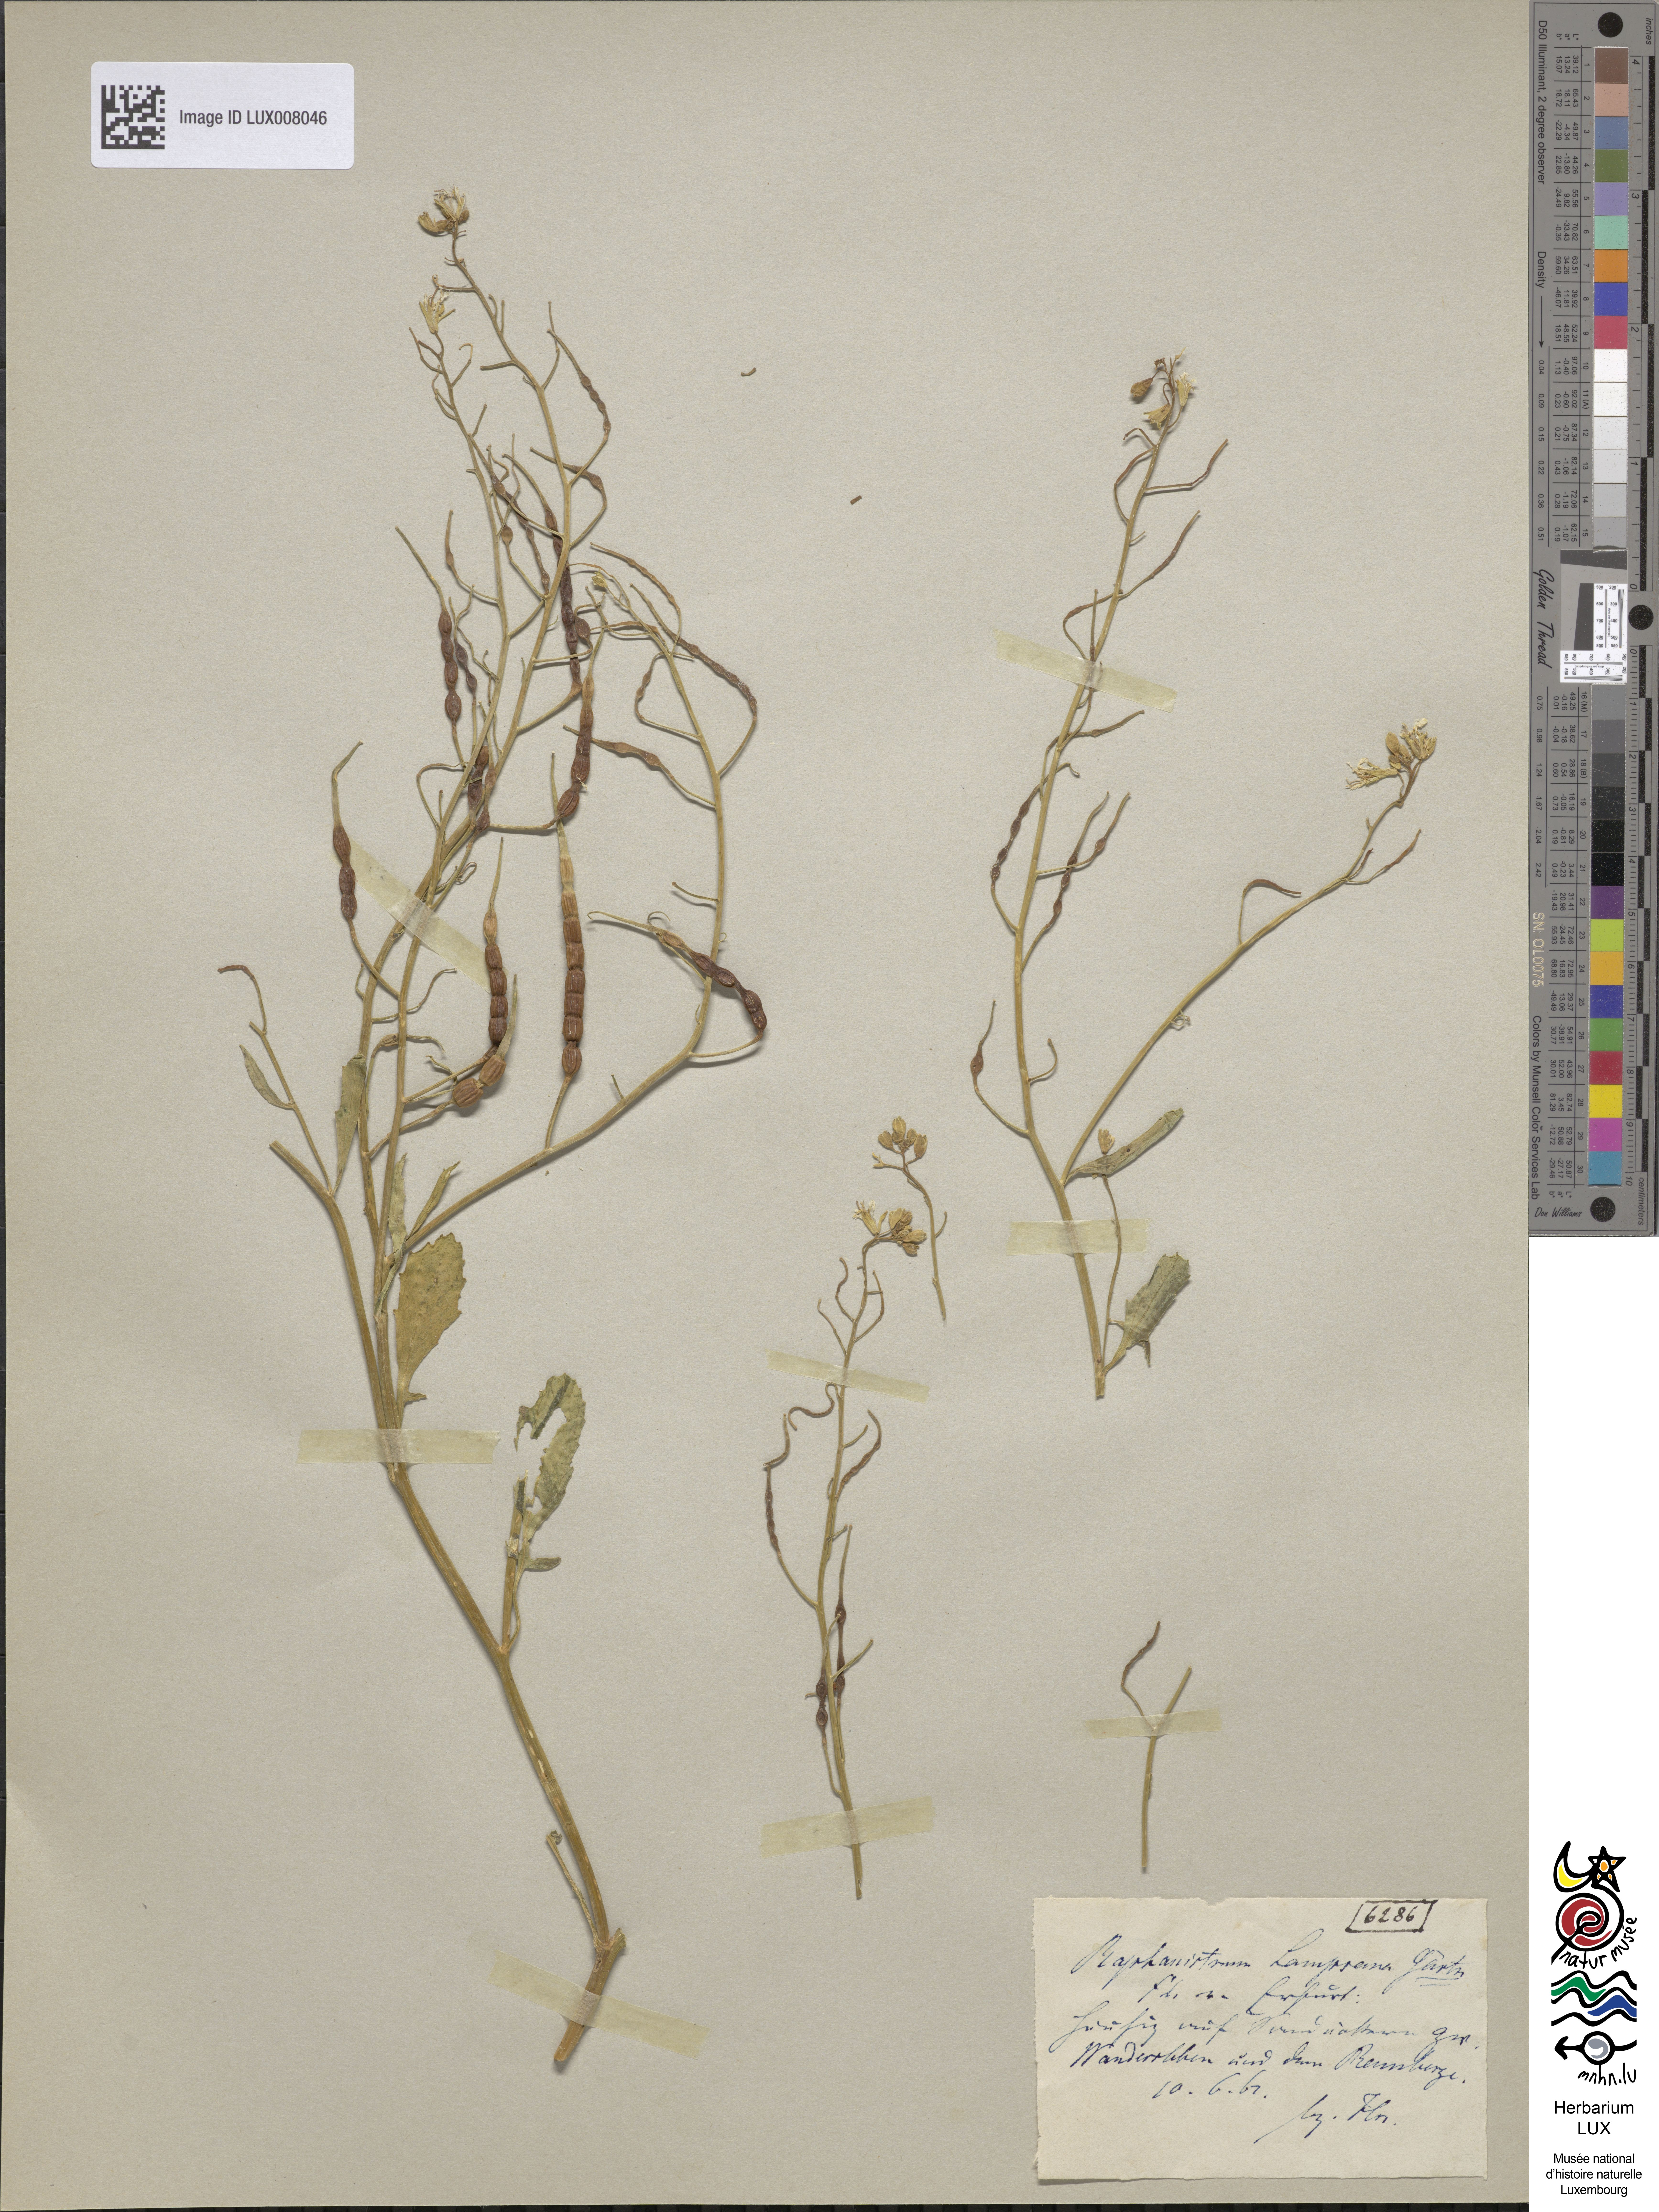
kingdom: Plantae
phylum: Tracheophyta
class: Magnoliopsida
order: Brassicales
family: Brassicaceae
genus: Raphanus
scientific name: Raphanus raphanistrum
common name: Wild radish
